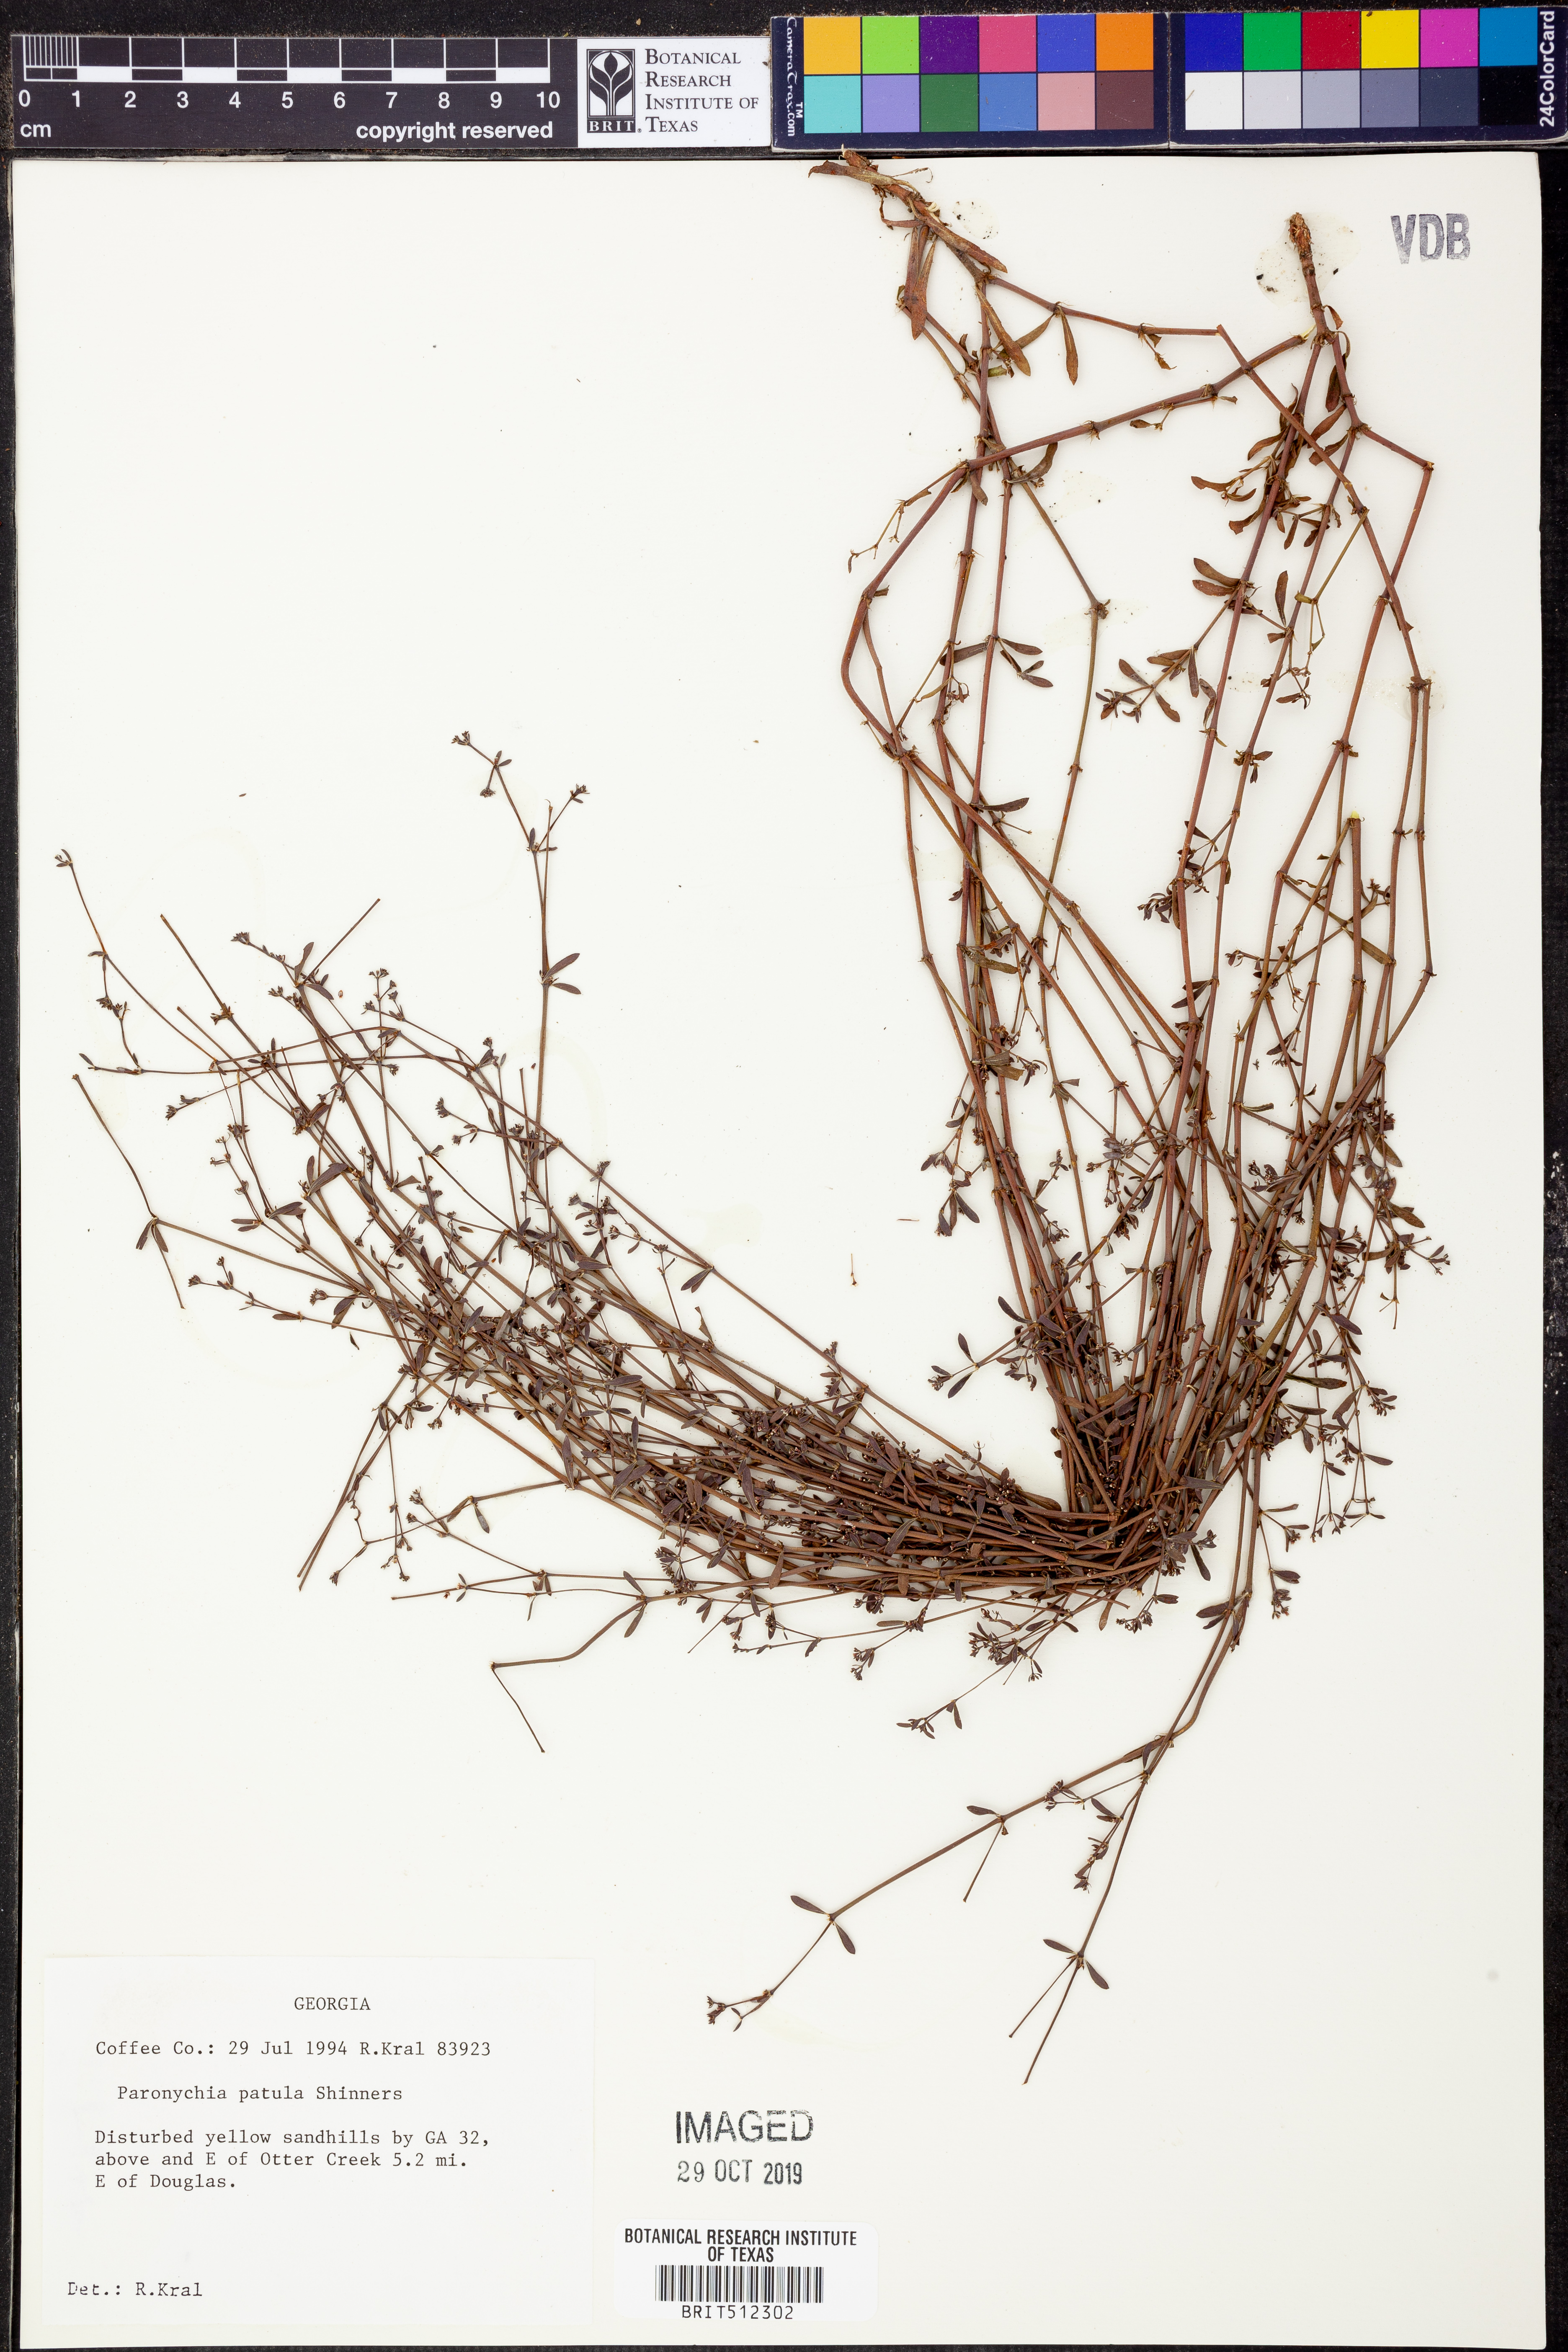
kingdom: Plantae
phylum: Tracheophyta
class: Magnoliopsida
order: Caryophyllales
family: Caryophyllaceae
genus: Paronychia
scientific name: Paronychia patula
